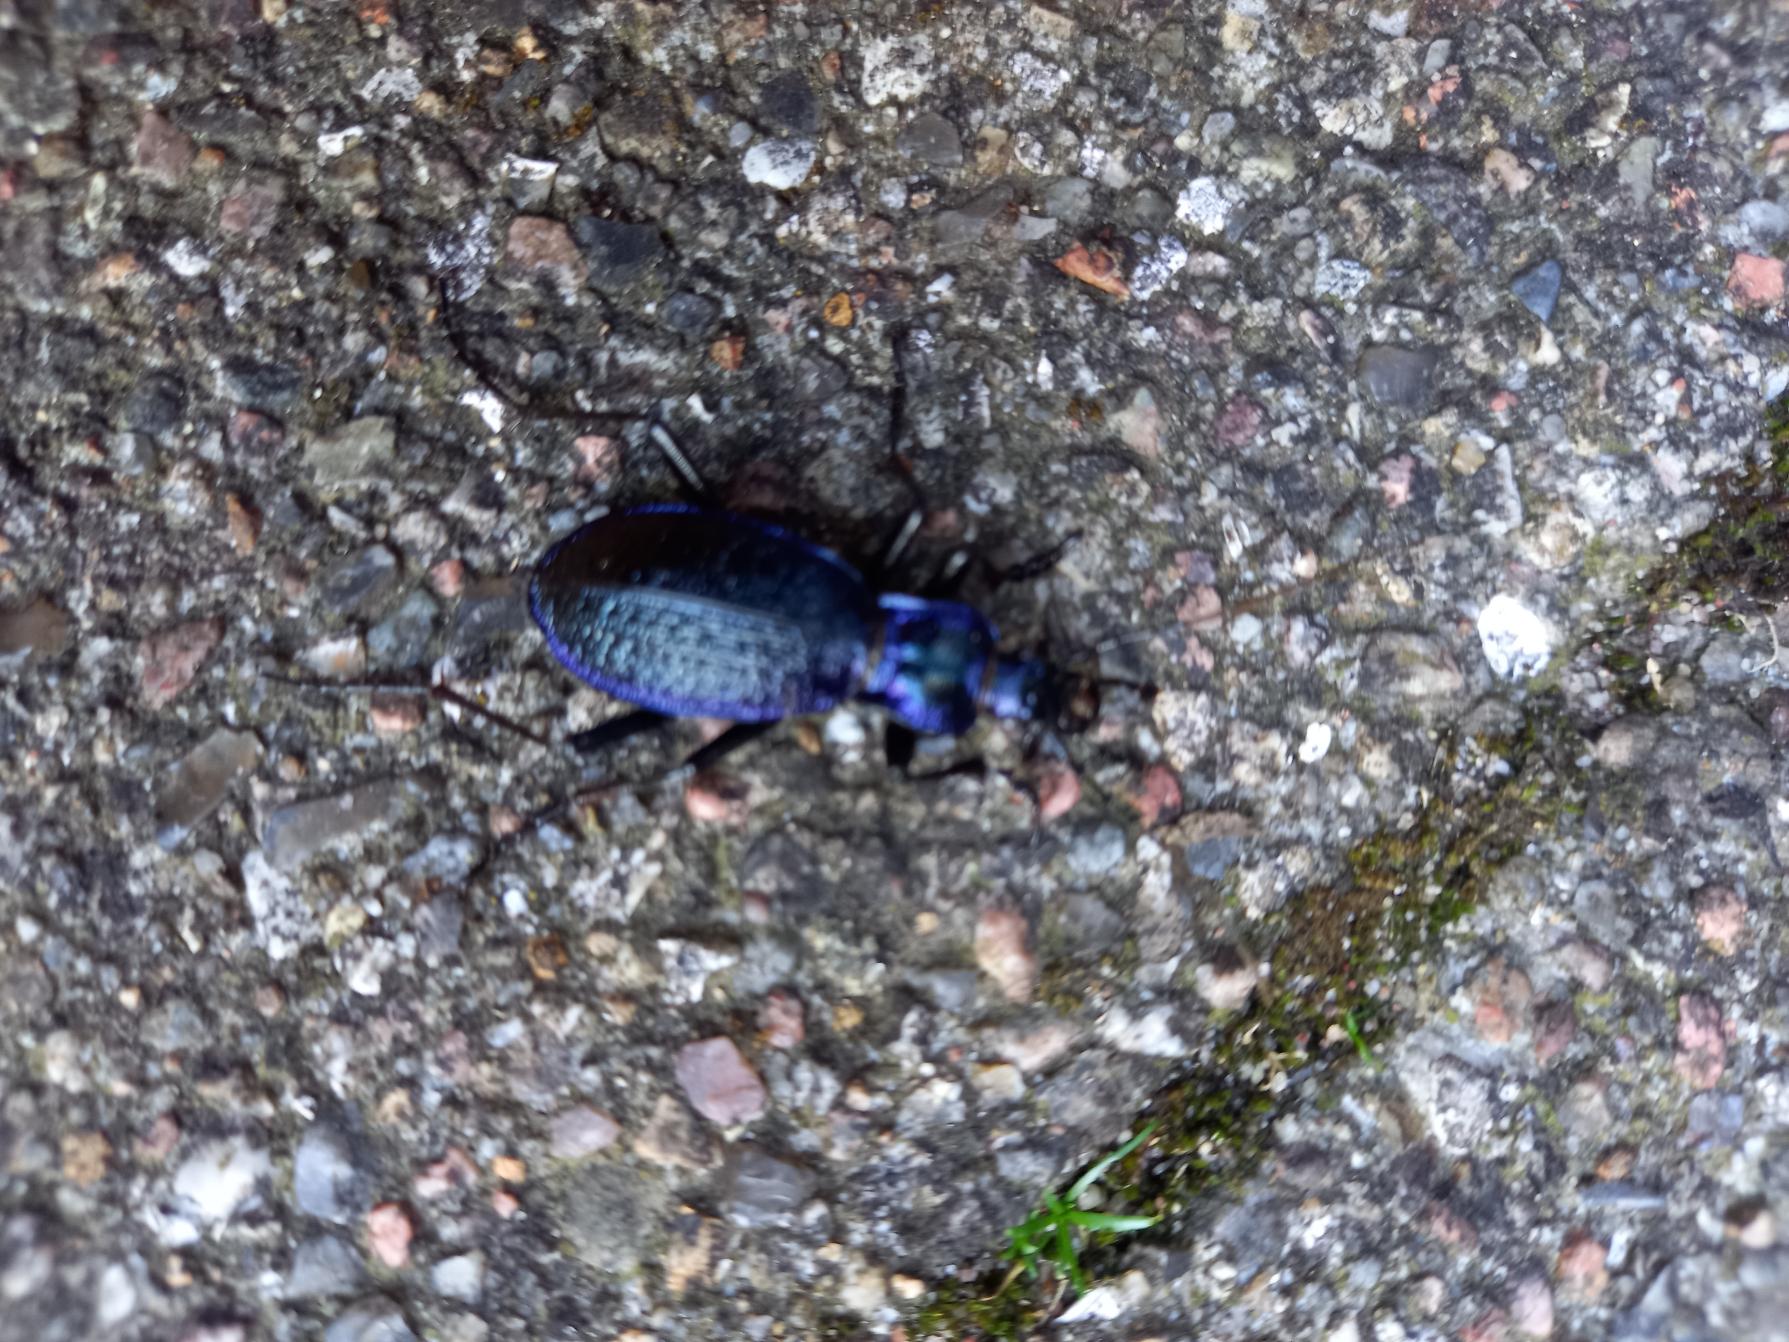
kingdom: Animalia
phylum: Arthropoda
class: Insecta
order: Coleoptera
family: Carabidae
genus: Carabus
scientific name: Carabus problematicus
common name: Jysk løber
